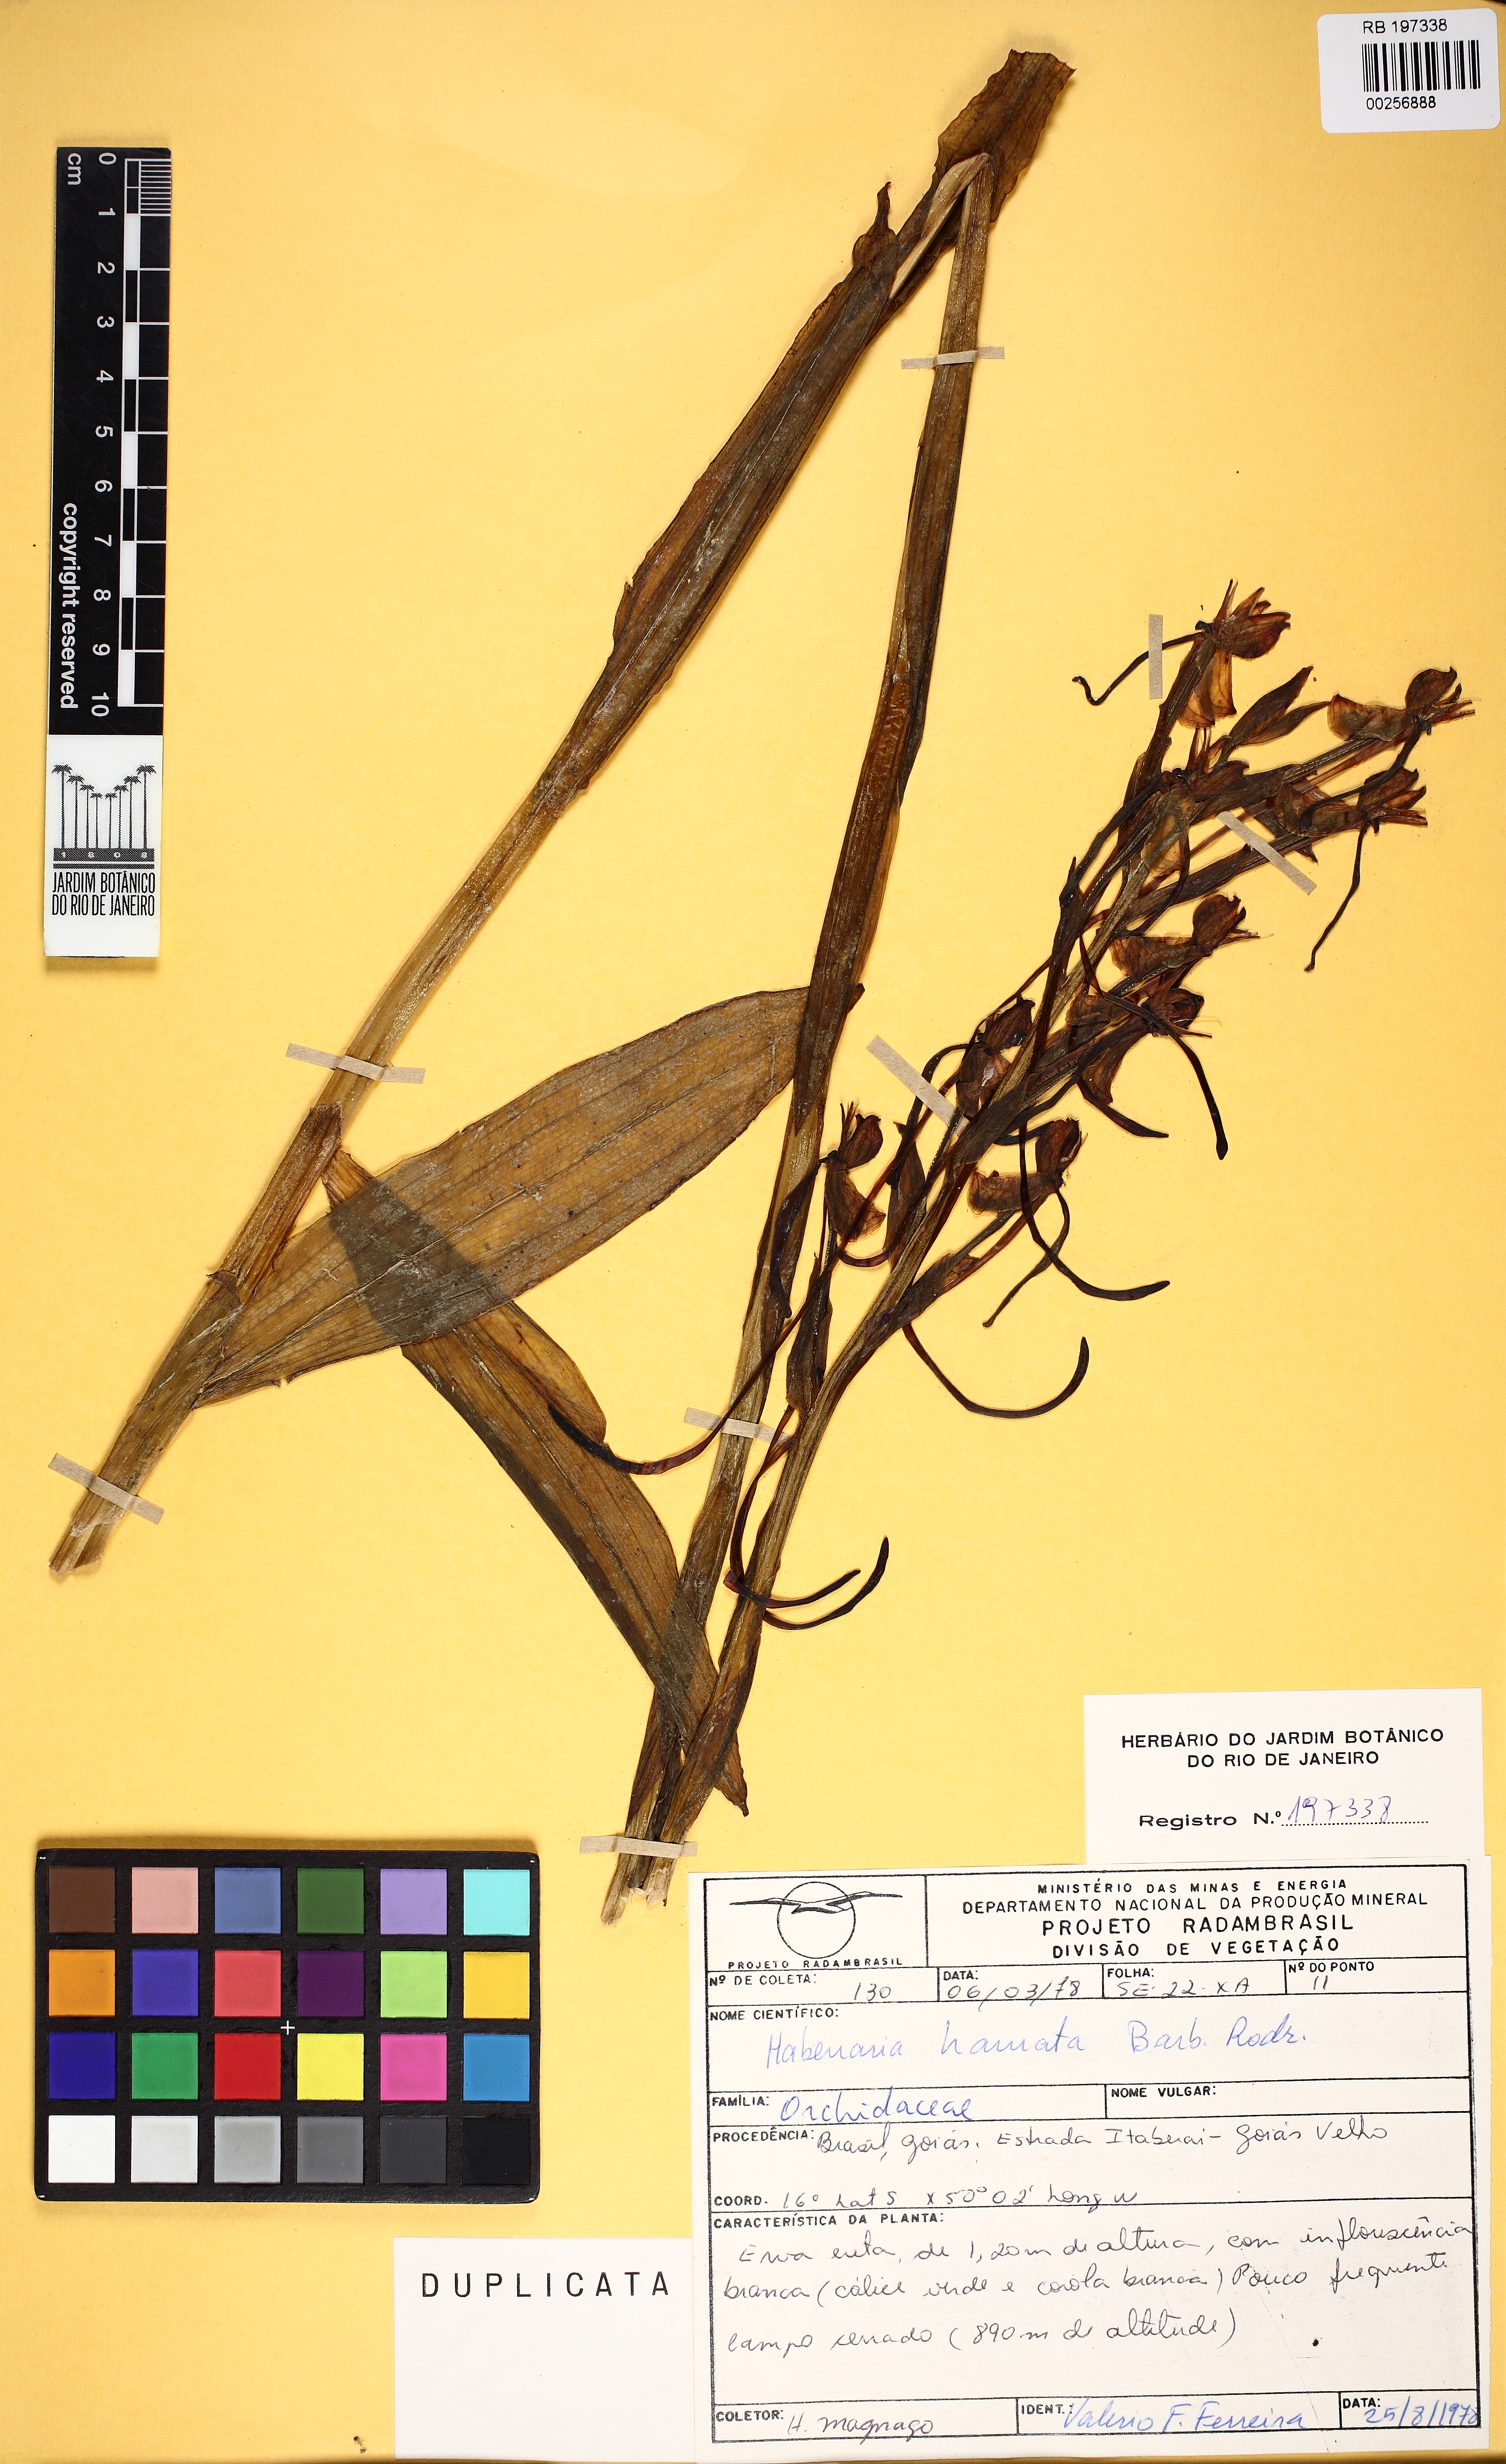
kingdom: Plantae
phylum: Tracheophyta
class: Liliopsida
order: Asparagales
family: Orchidaceae
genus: Habenaria
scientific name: Habenaria hamata
